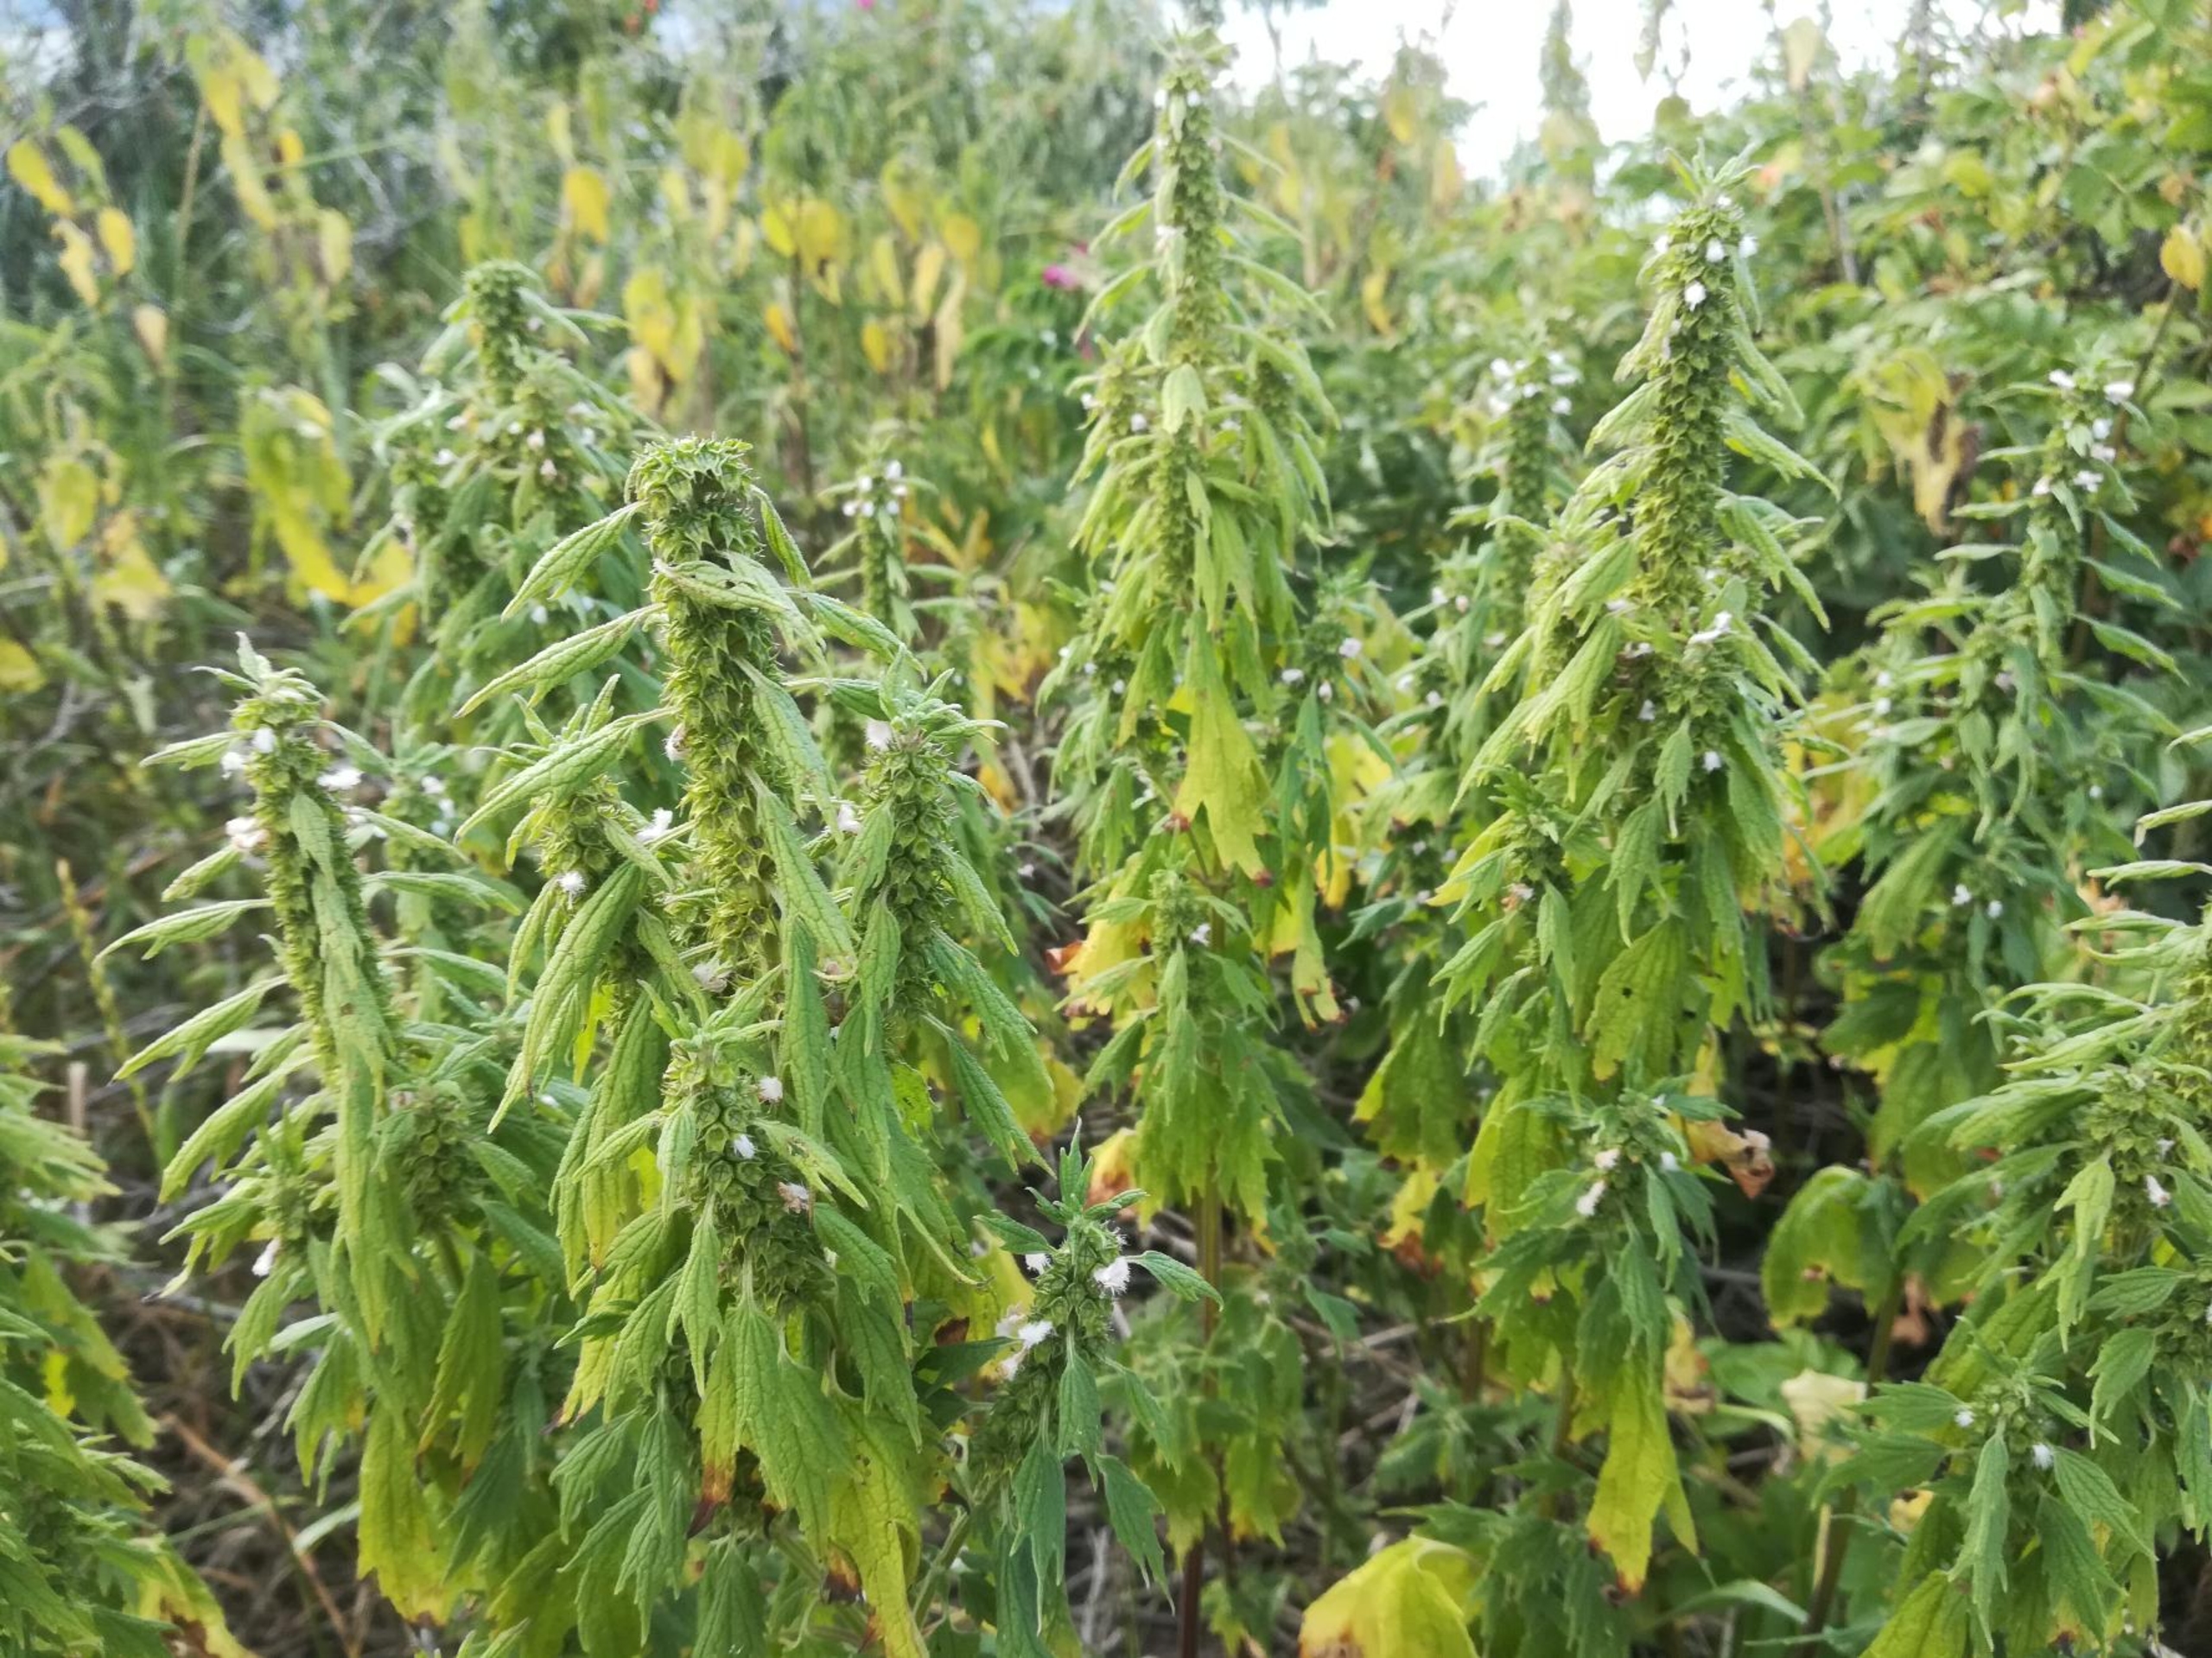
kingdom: Plantae
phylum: Tracheophyta
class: Magnoliopsida
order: Lamiales
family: Lamiaceae
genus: Leonurus
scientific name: Leonurus cardiaca
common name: Hjertespand
